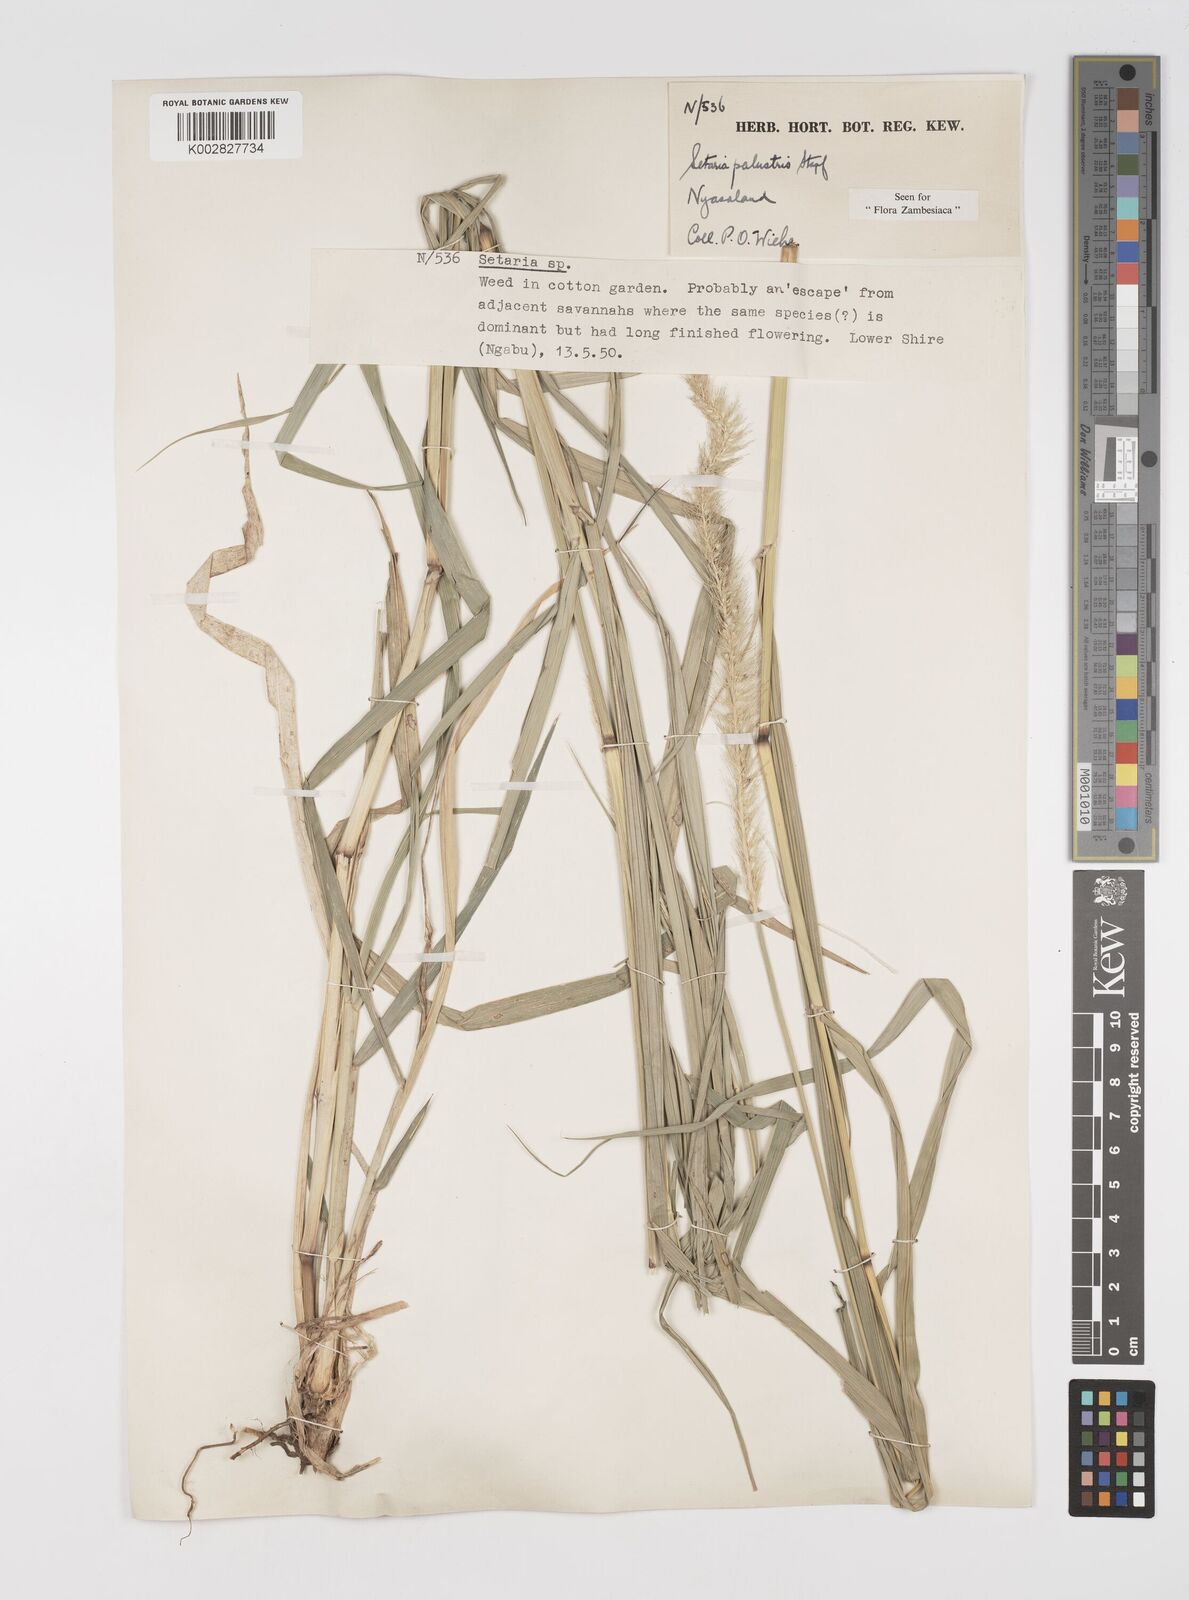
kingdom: Plantae
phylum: Tracheophyta
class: Liliopsida
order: Poales
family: Poaceae
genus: Setaria
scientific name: Setaria incrassata
